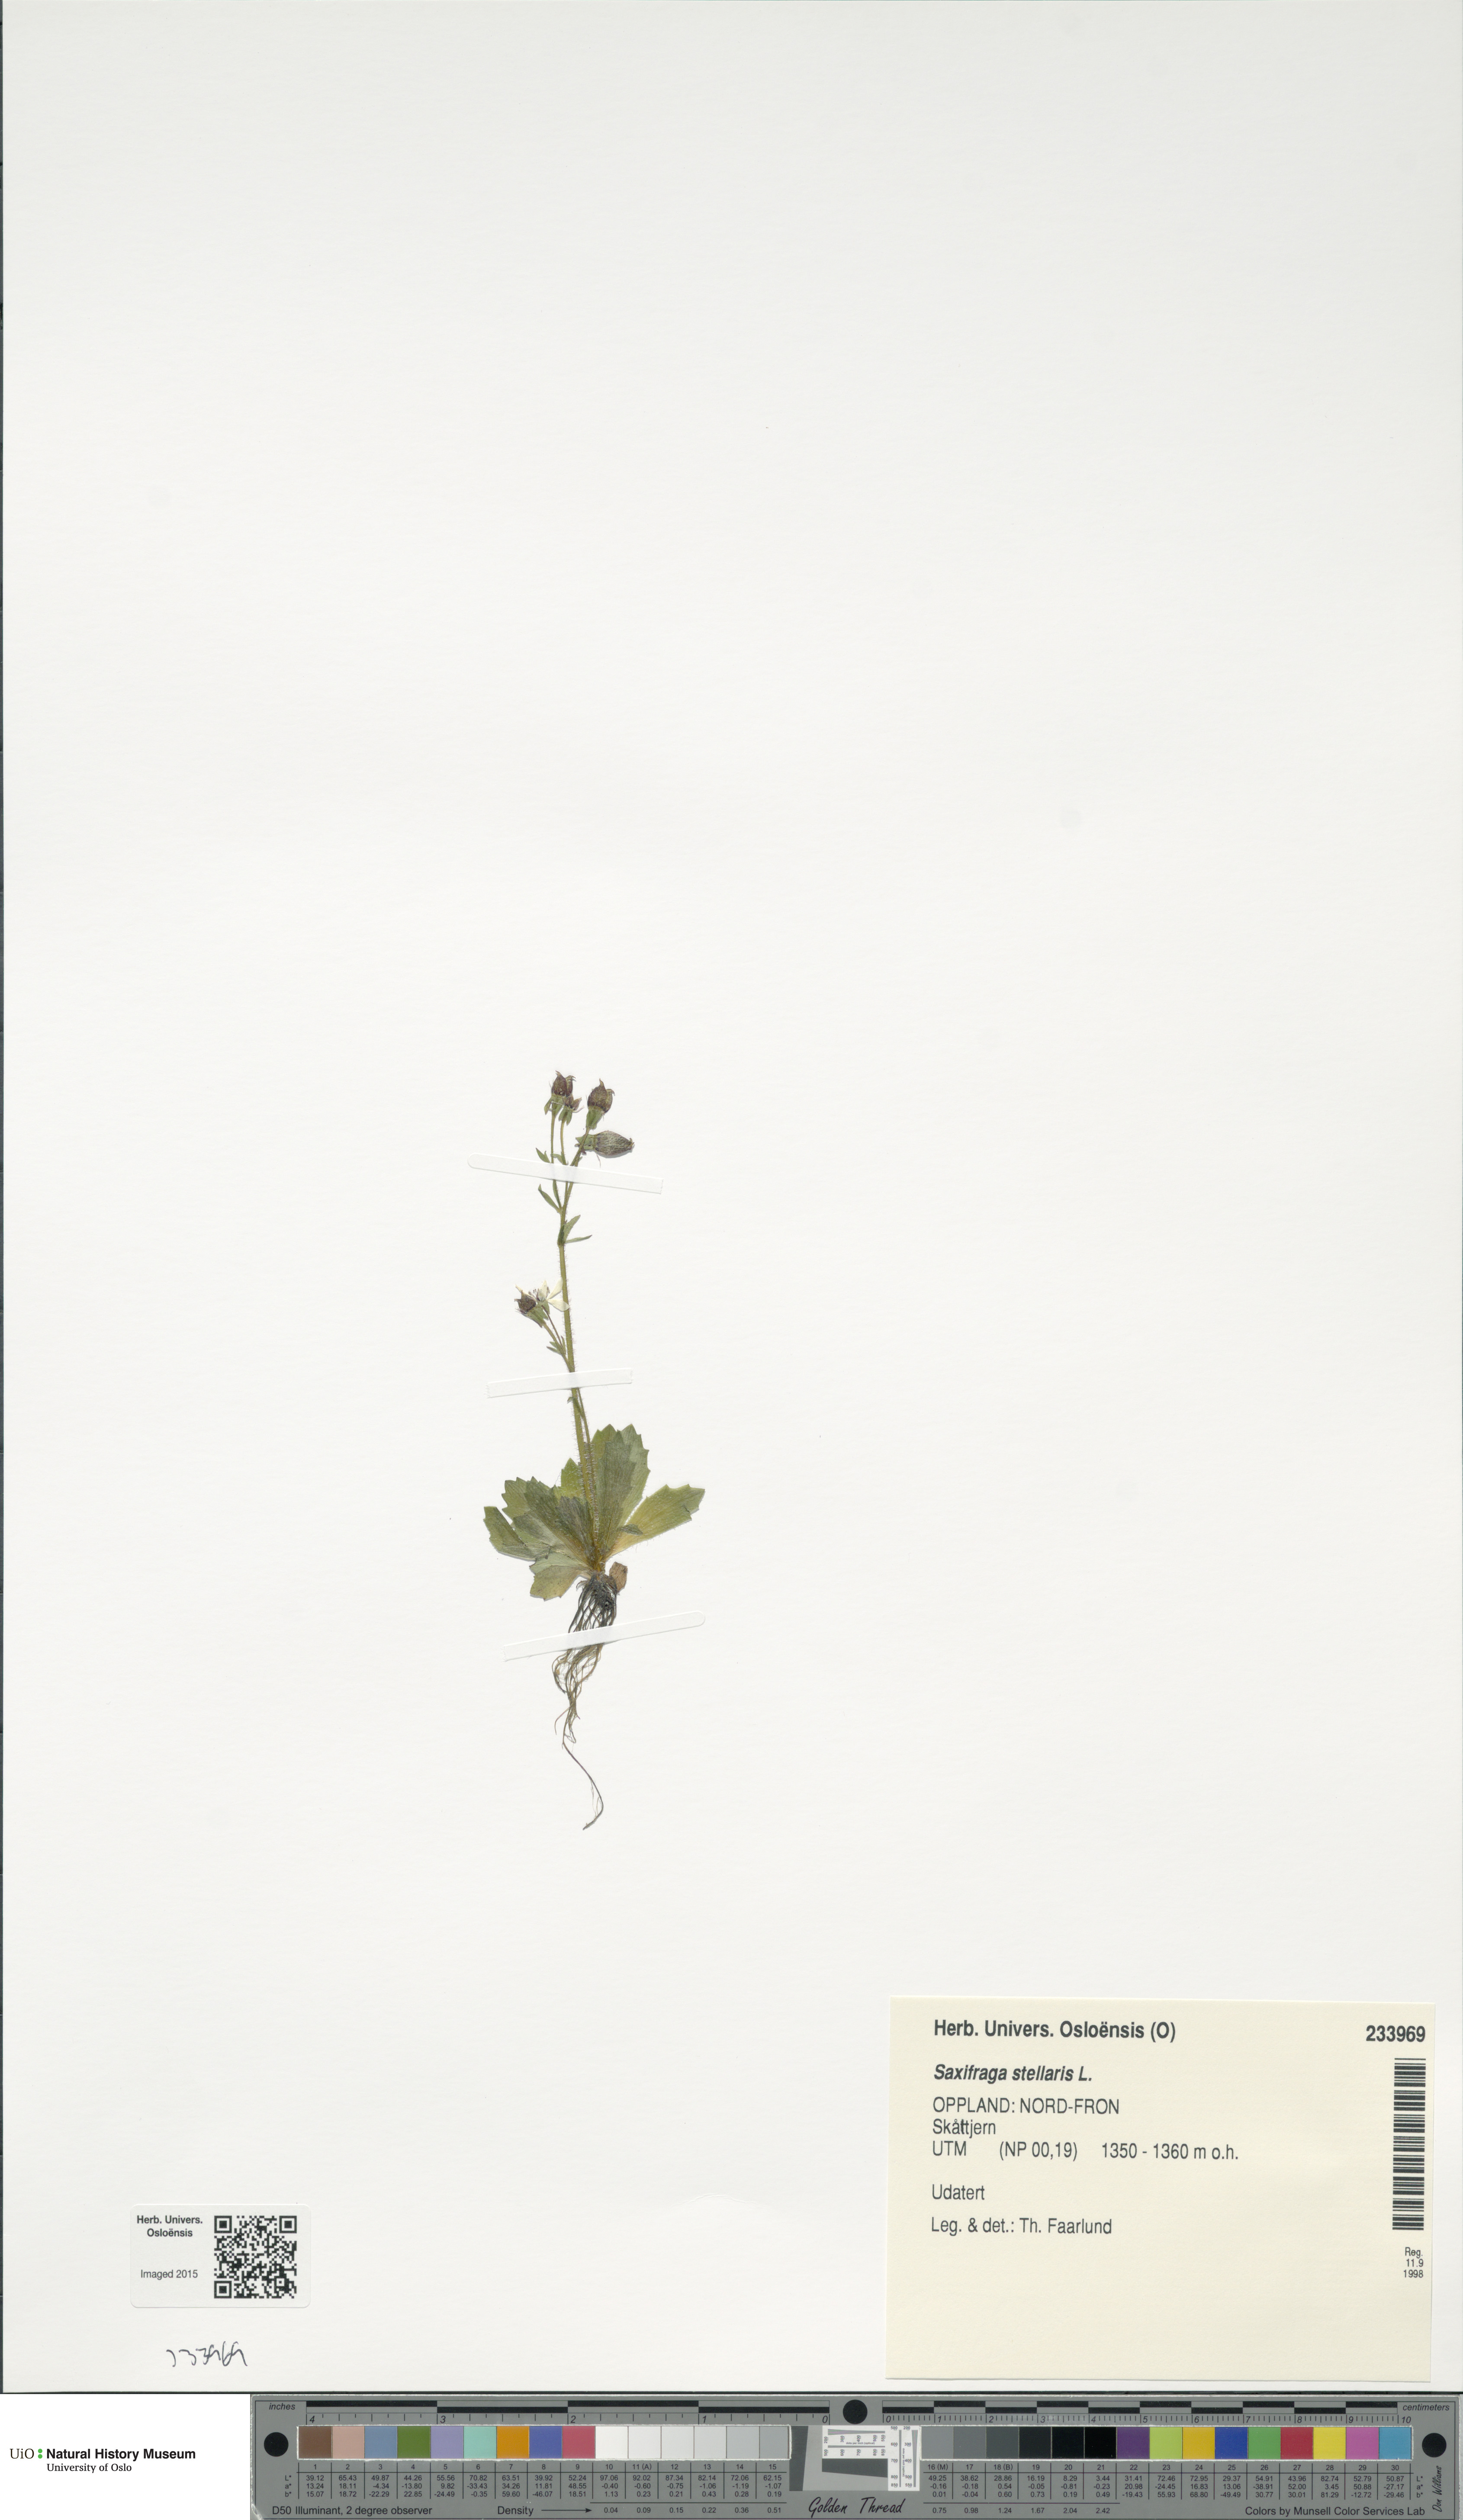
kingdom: Plantae
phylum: Tracheophyta
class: Magnoliopsida
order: Saxifragales
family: Saxifragaceae
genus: Micranthes
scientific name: Micranthes stellaris
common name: Starry saxifrage
